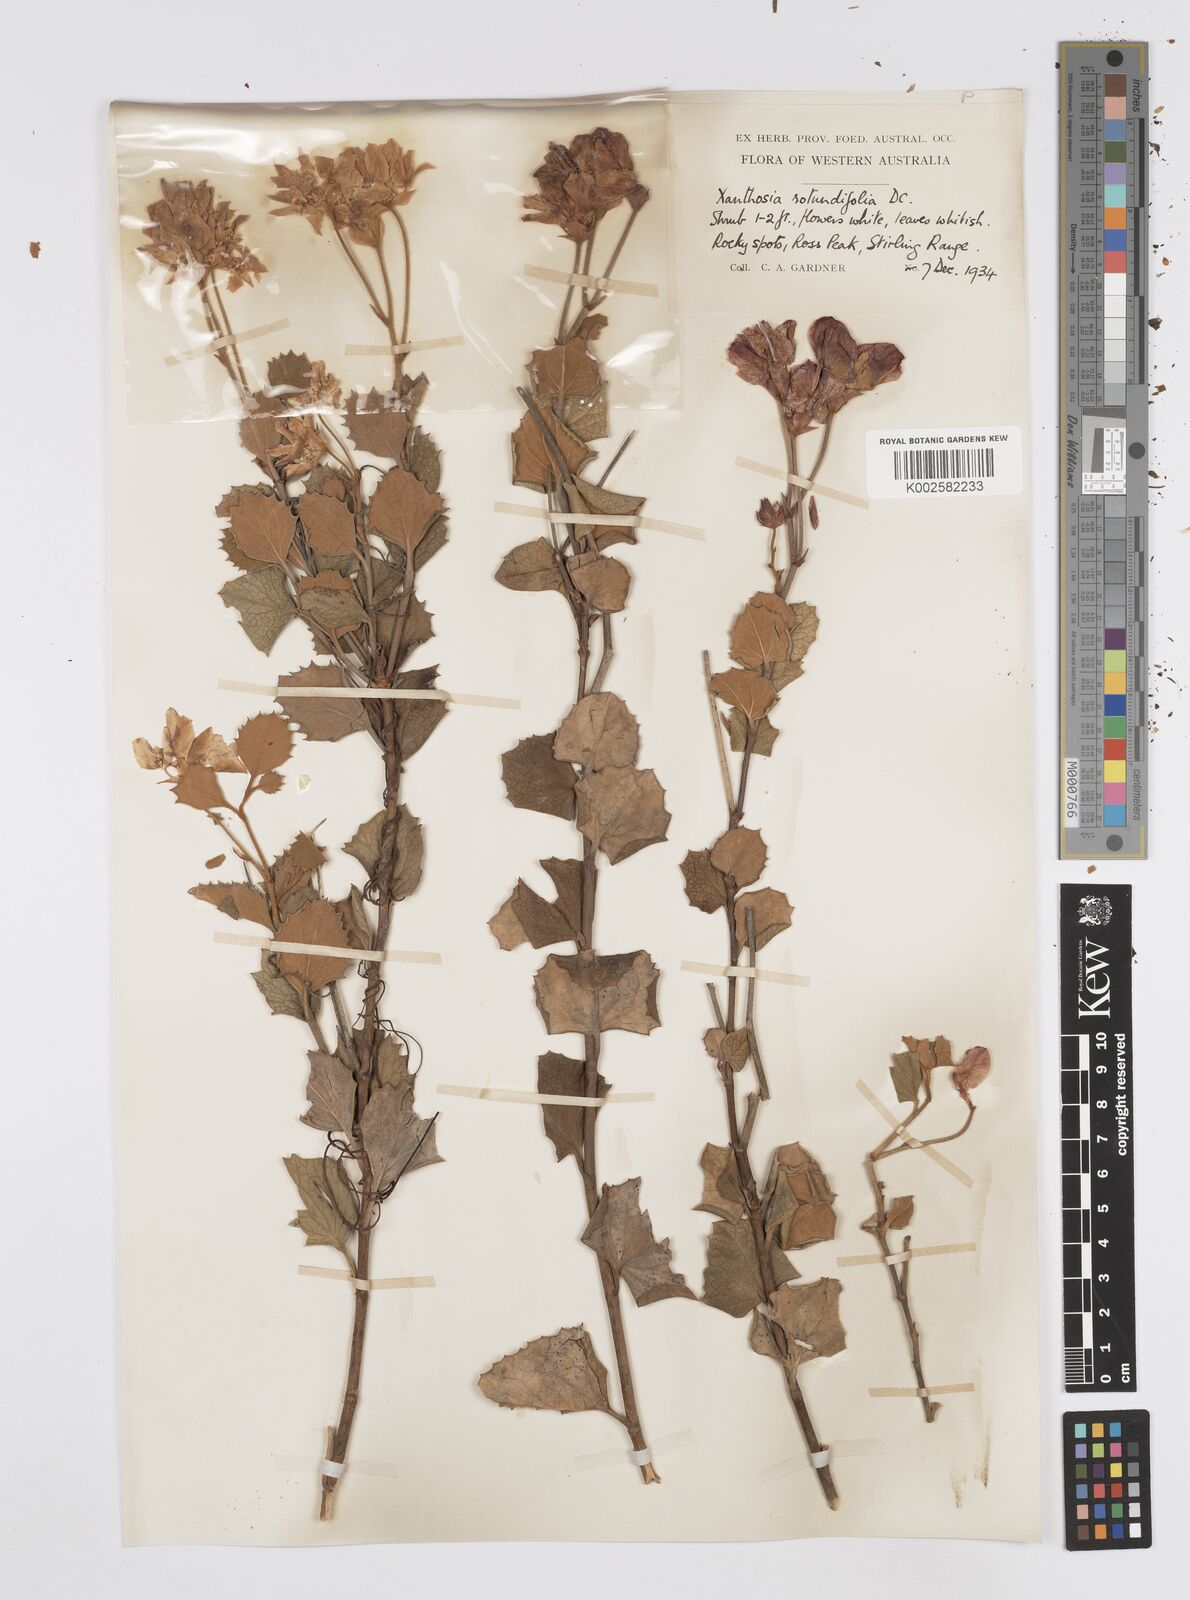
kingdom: Plantae
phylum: Tracheophyta
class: Magnoliopsida
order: Apiales
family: Apiaceae
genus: Xanthosia
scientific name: Xanthosia rotundifolia
